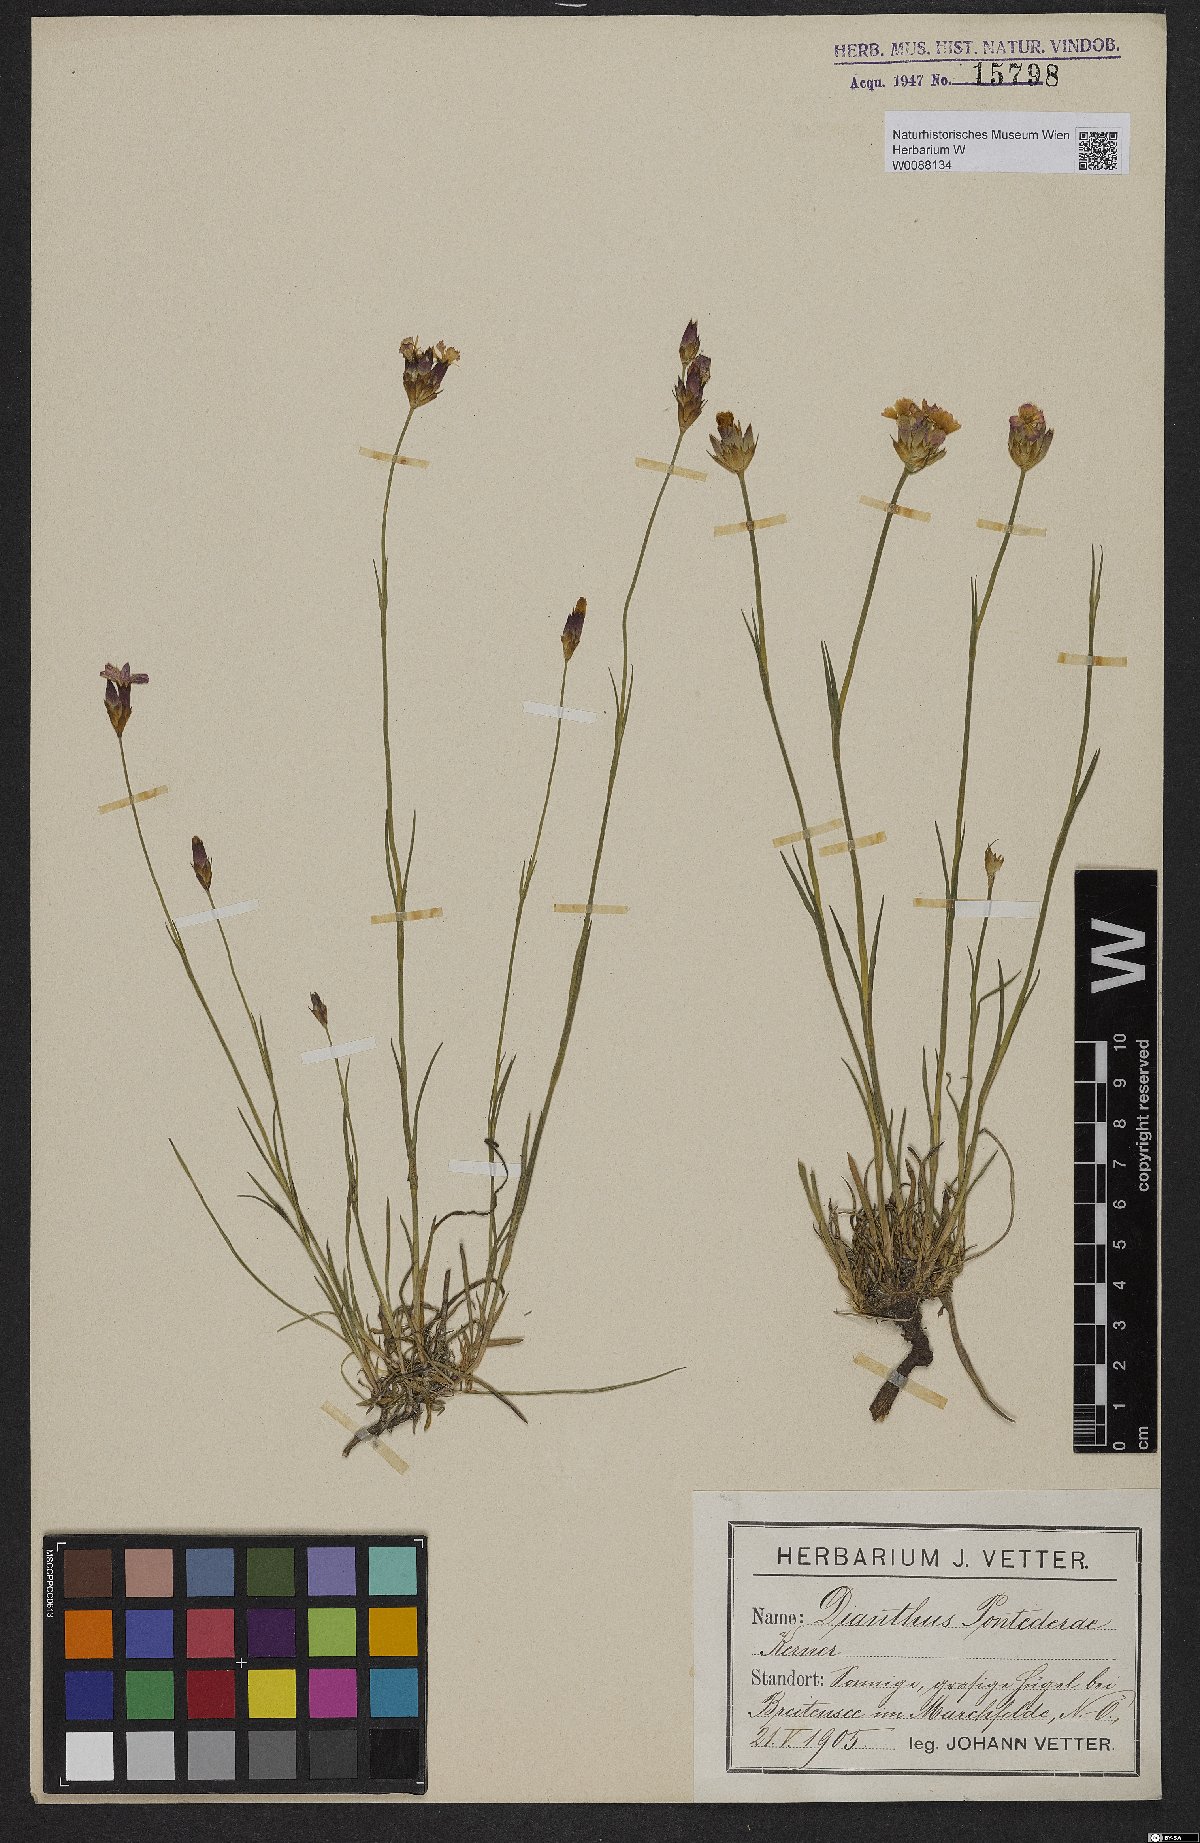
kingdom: Plantae
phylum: Tracheophyta
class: Magnoliopsida
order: Caryophyllales
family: Caryophyllaceae
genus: Dianthus
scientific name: Dianthus pontederae
